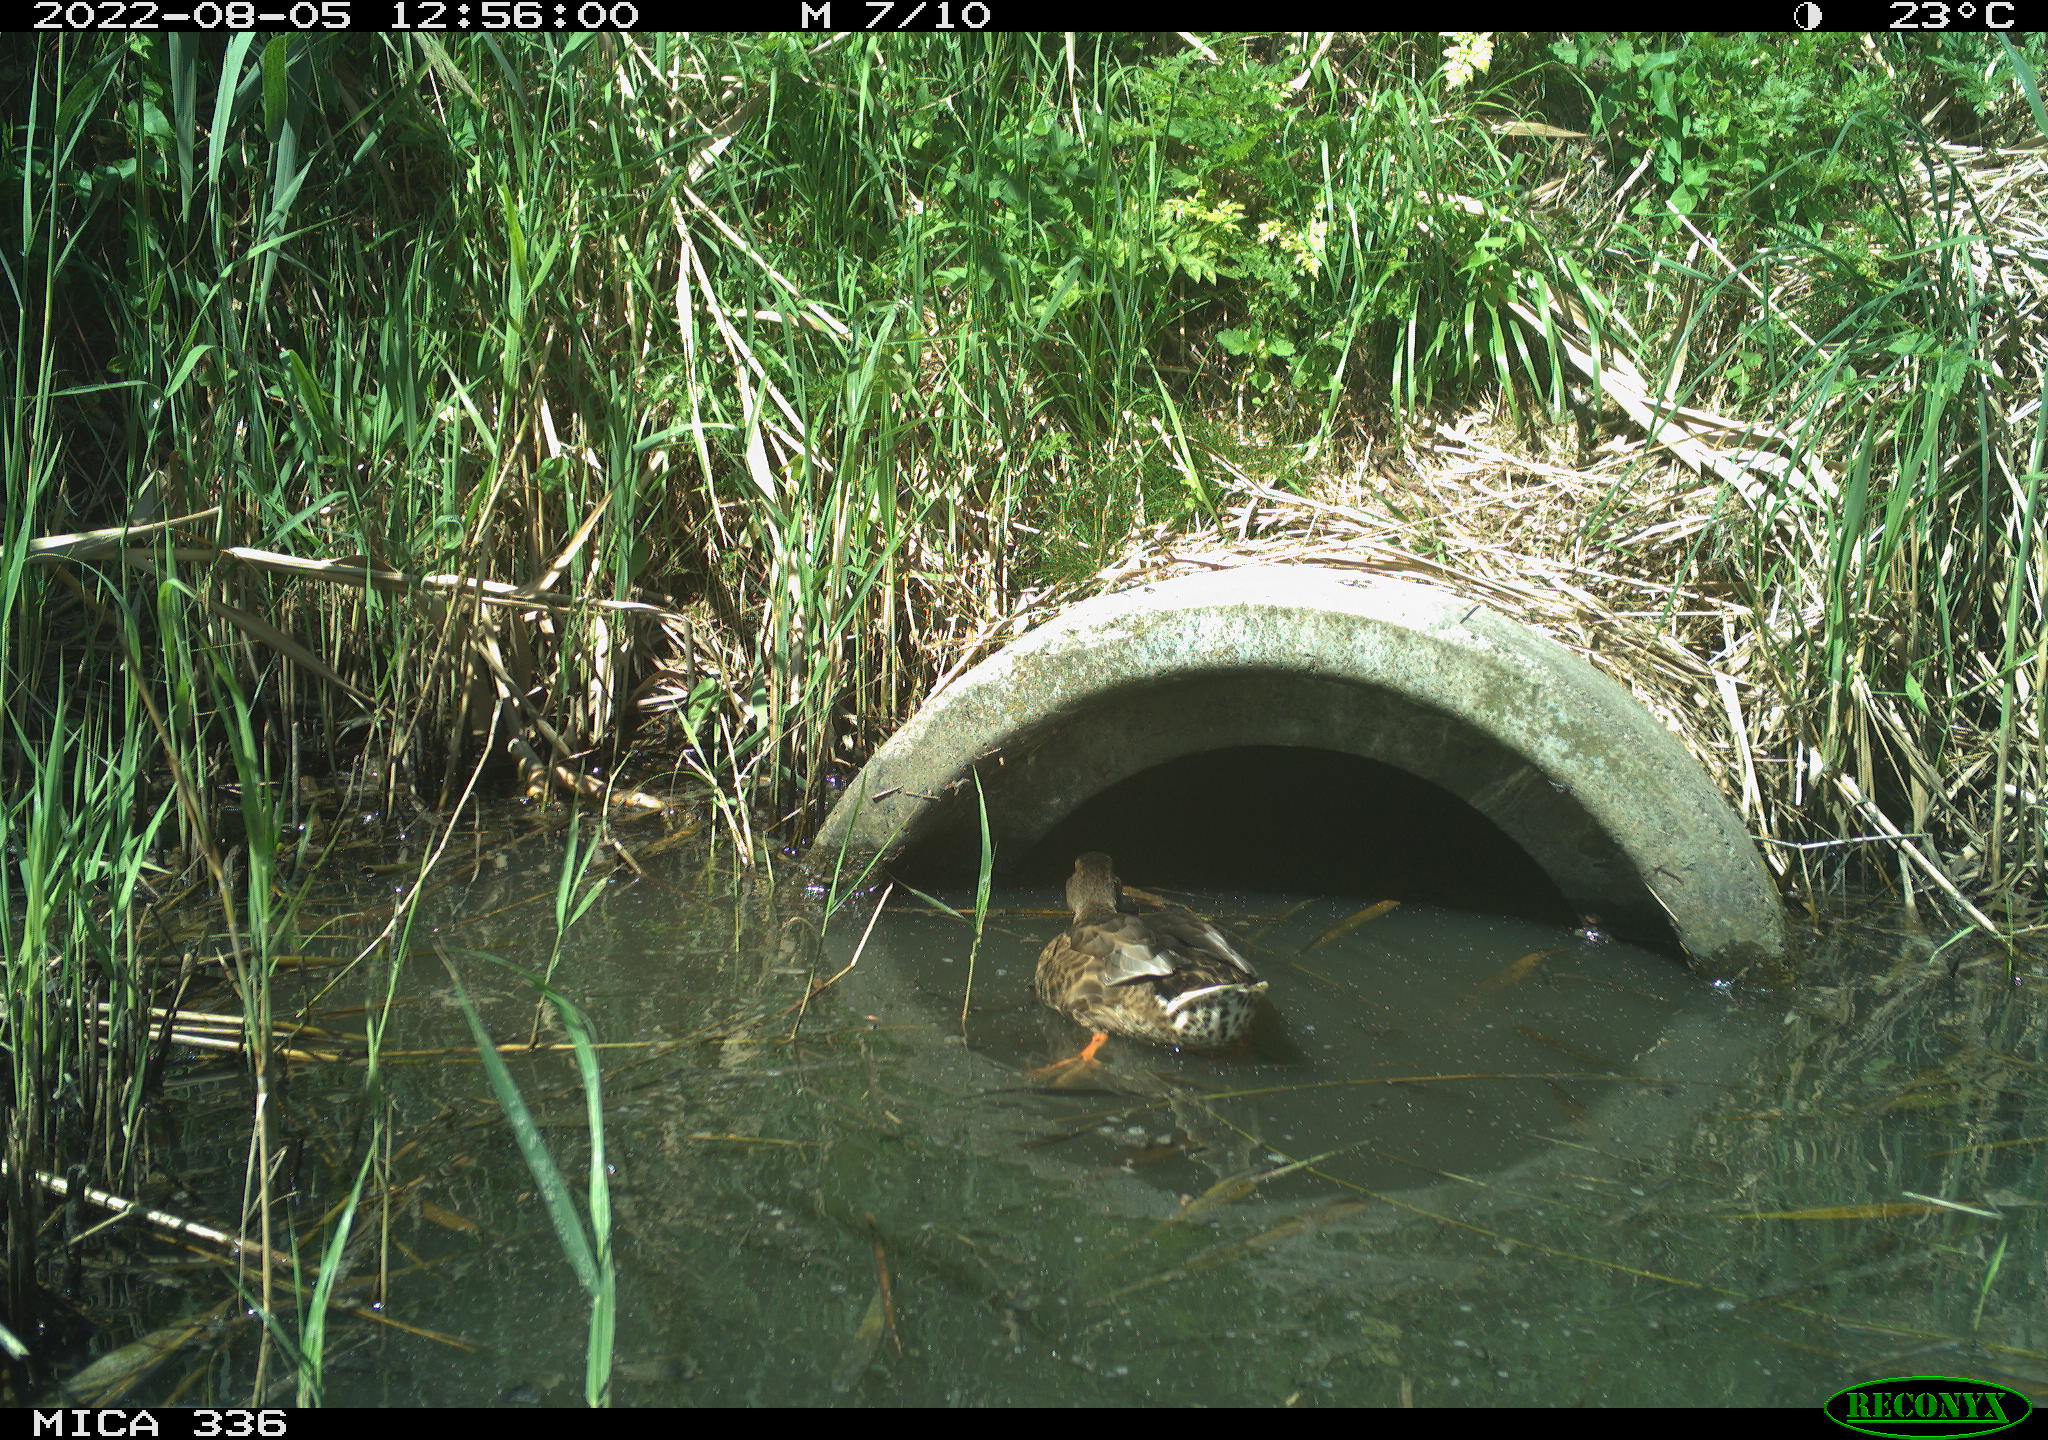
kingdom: Animalia
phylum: Chordata
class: Aves
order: Anseriformes
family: Anatidae
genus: Anas
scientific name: Anas platyrhynchos
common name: Mallard
